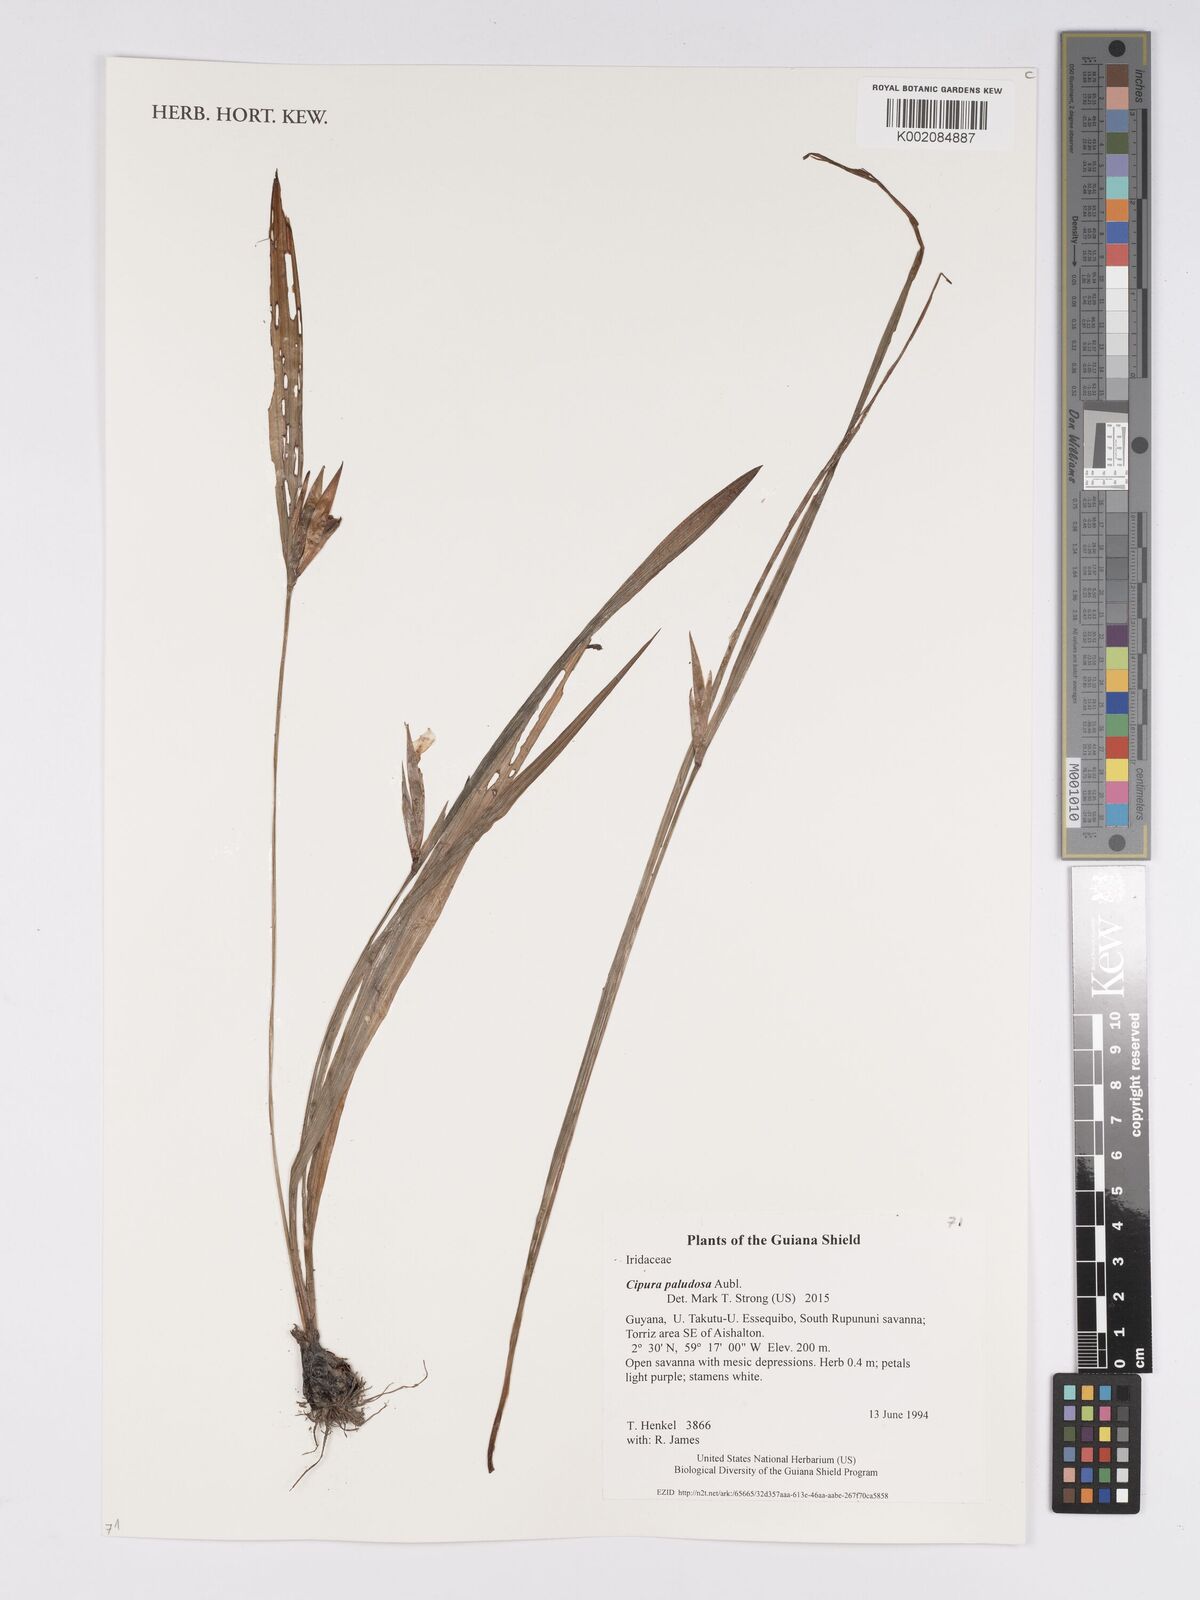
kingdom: Plantae
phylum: Tracheophyta
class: Liliopsida
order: Asparagales
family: Iridaceae
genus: Cipura
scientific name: Cipura paludosa
